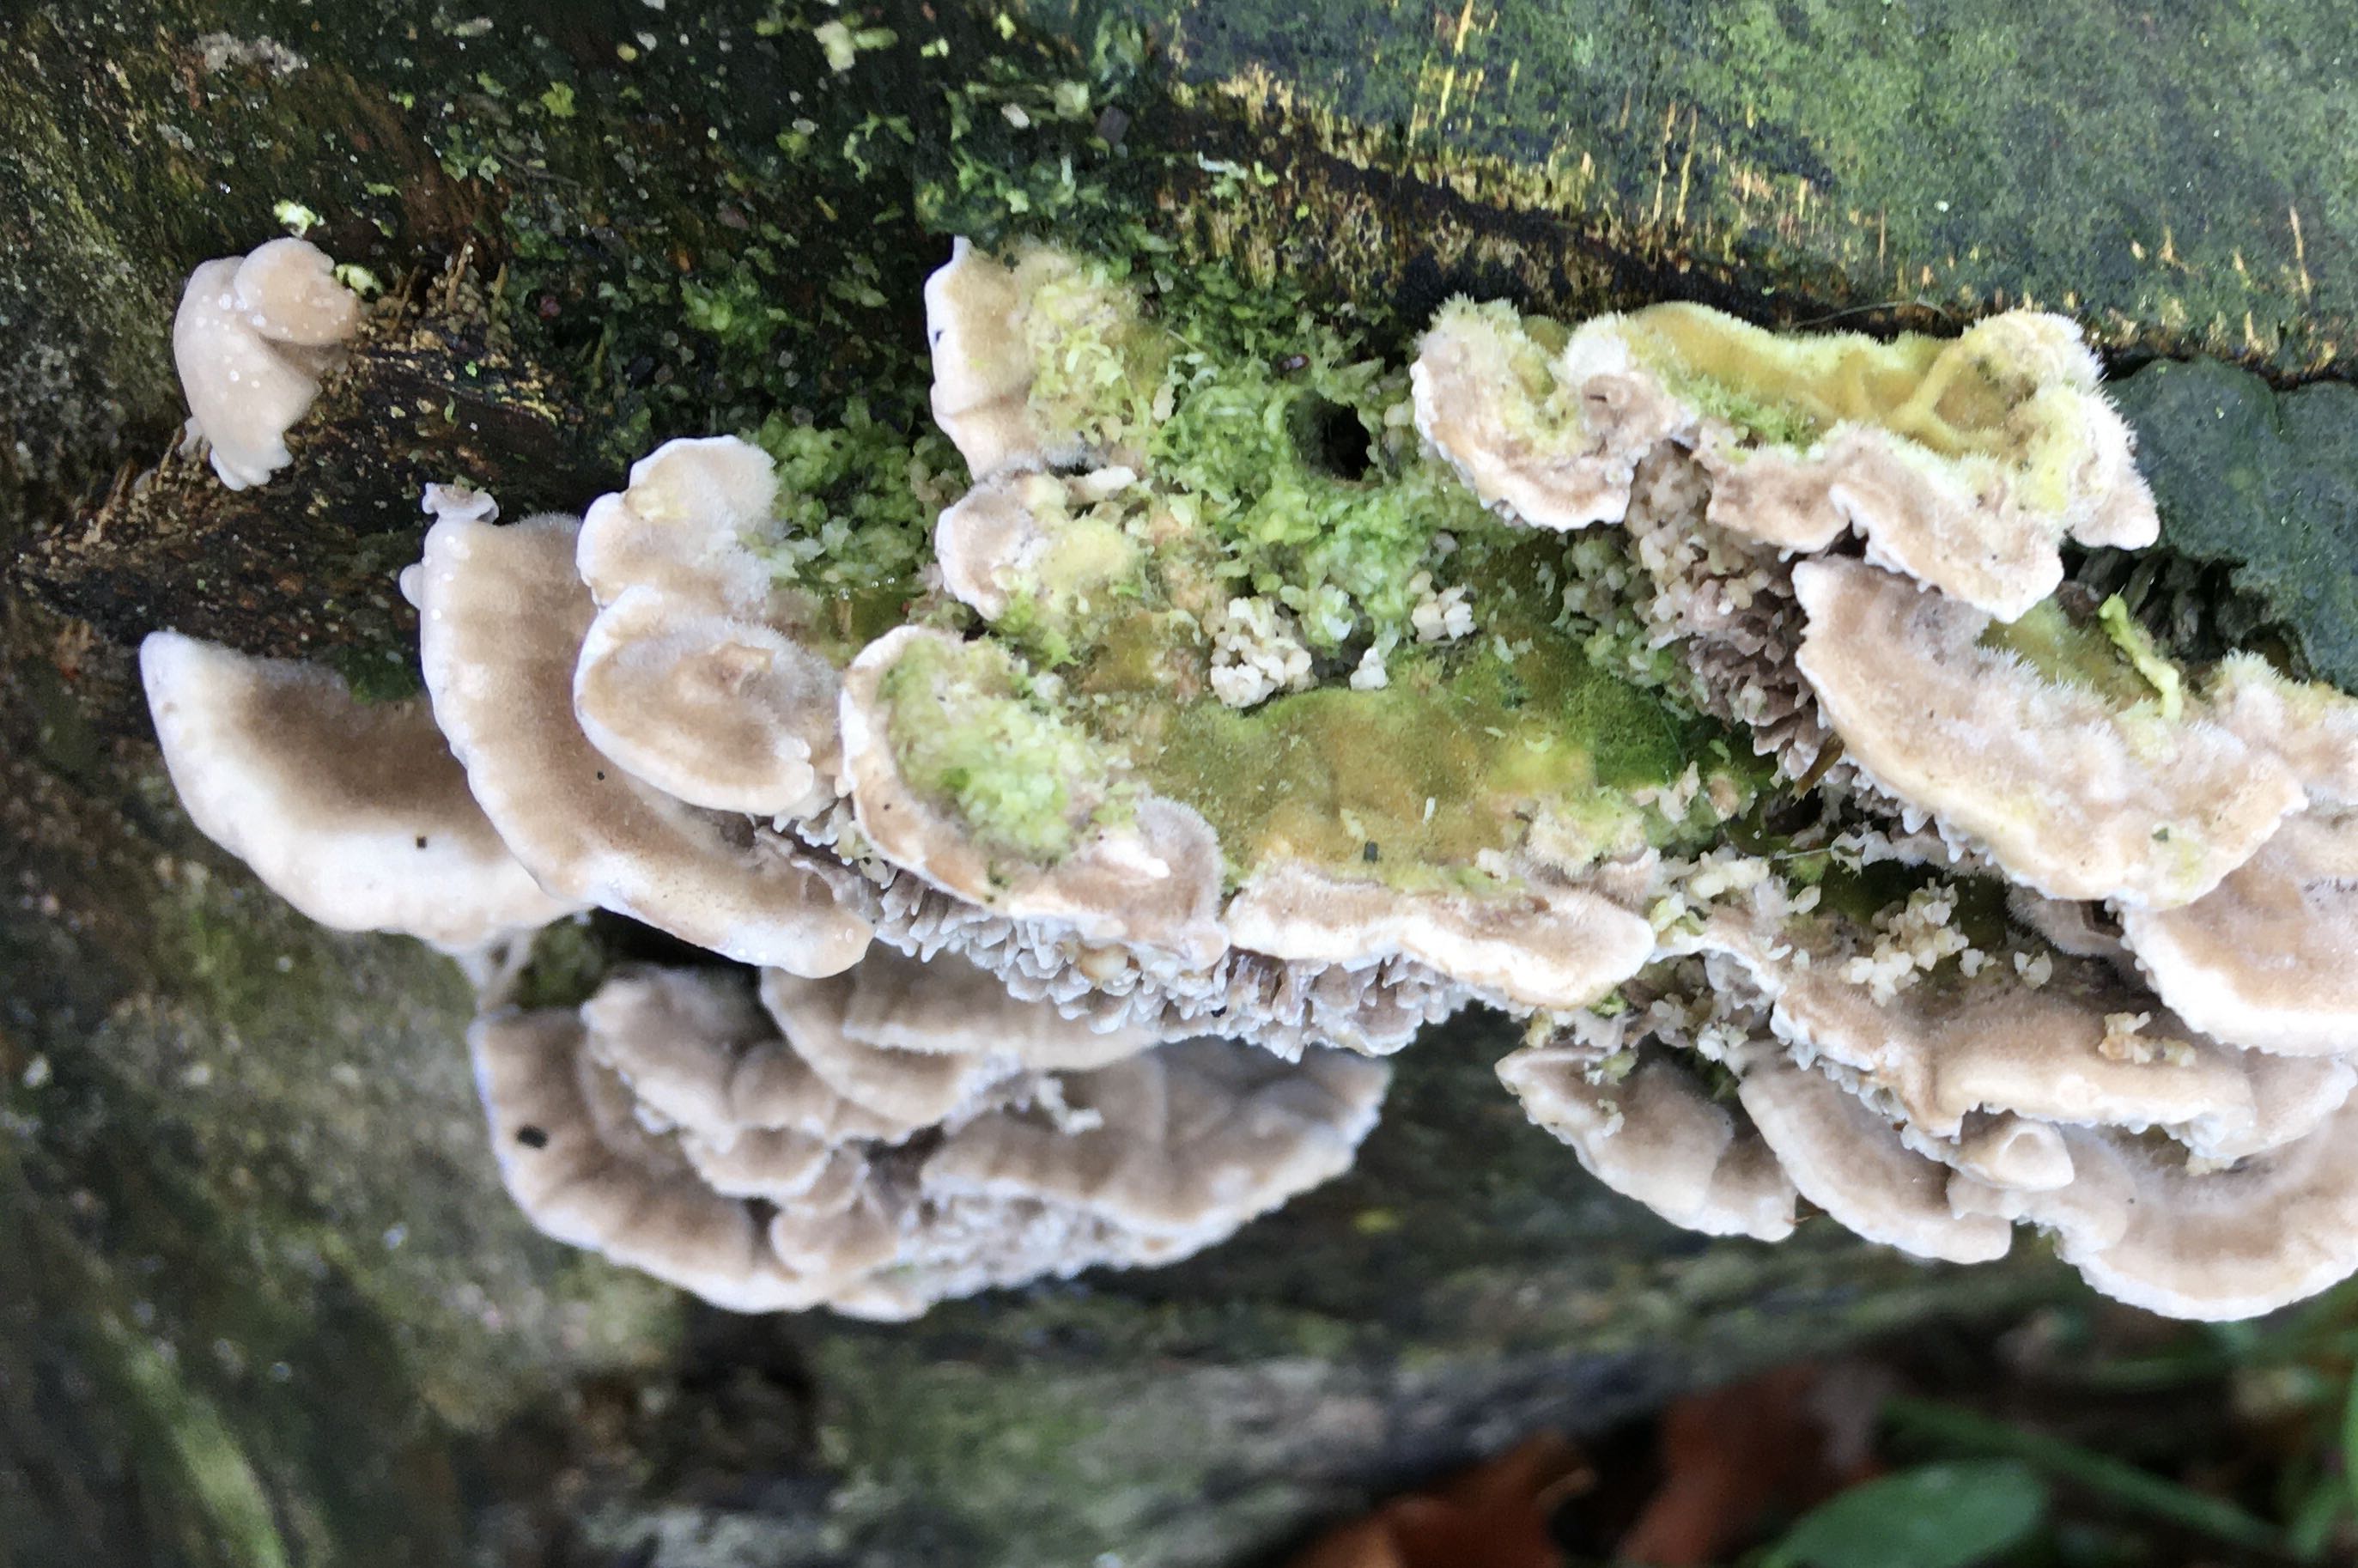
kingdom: Fungi
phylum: Basidiomycota
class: Agaricomycetes
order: Polyporales
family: Polyporaceae
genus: Lenzites
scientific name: Lenzites betulinus
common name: birke-læderporesvamp
